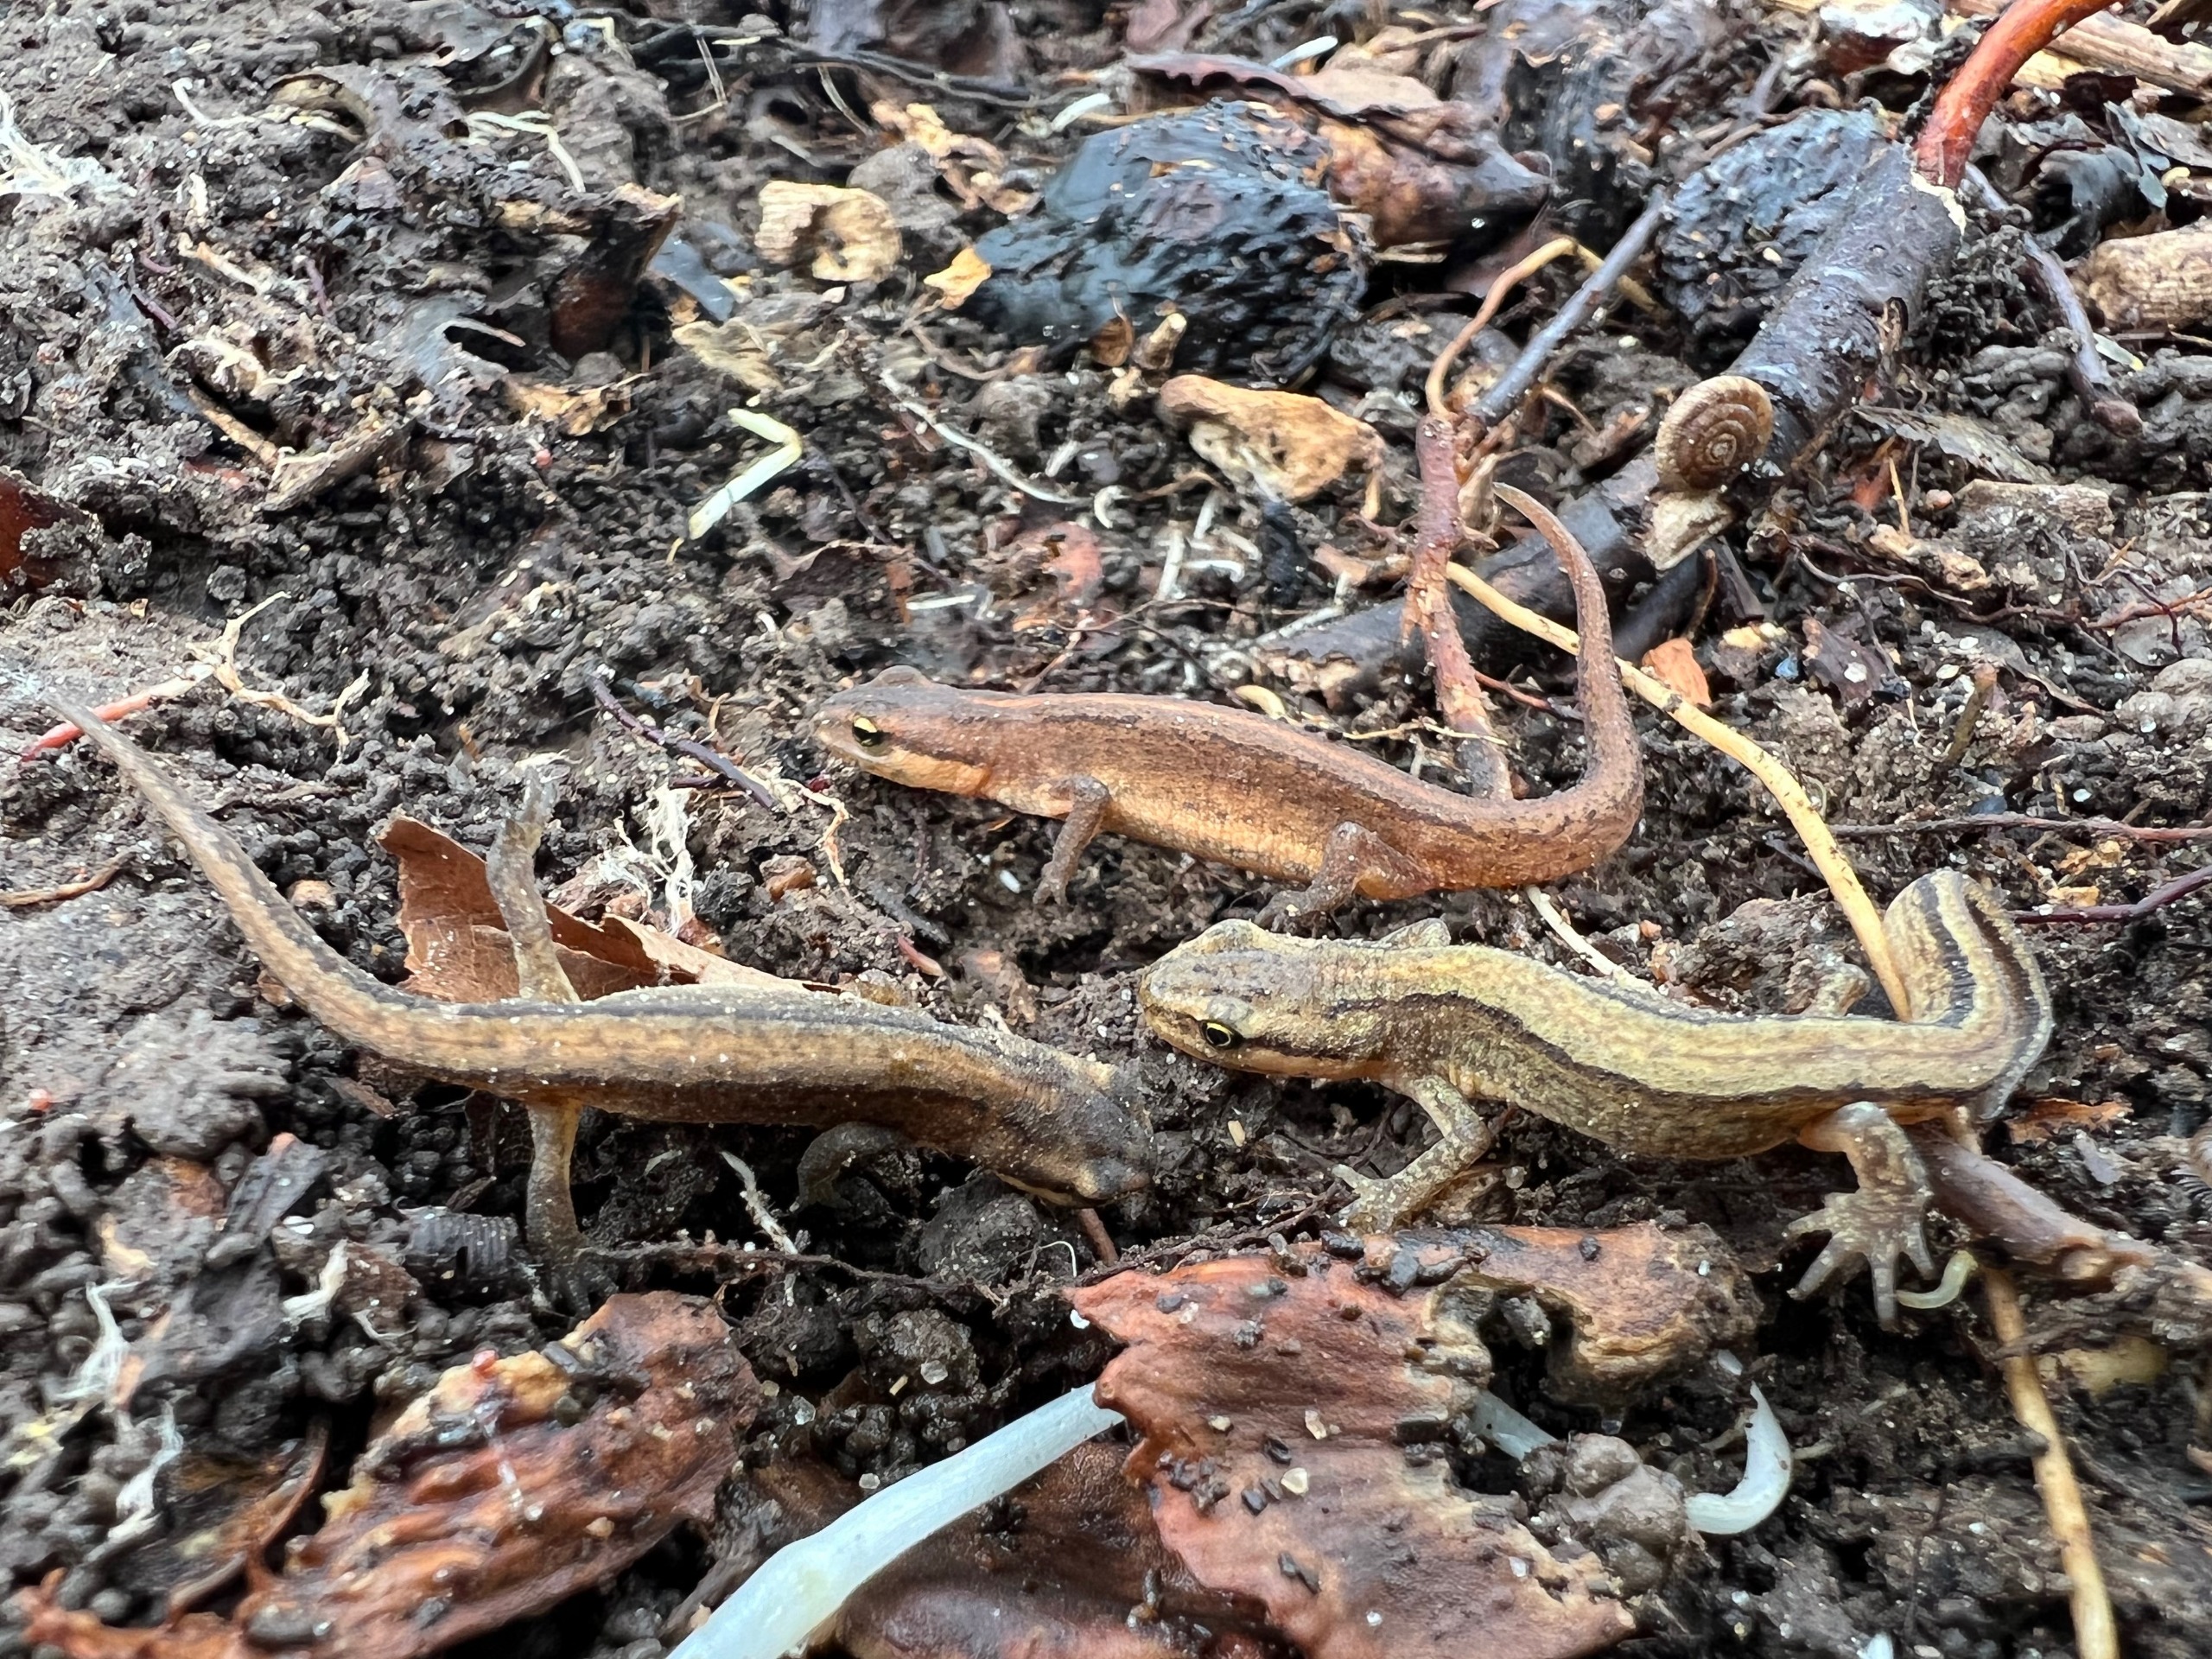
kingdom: Animalia
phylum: Chordata
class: Amphibia
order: Caudata
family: Salamandridae
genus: Lissotriton
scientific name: Lissotriton vulgaris
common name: Lille vandsalamander
